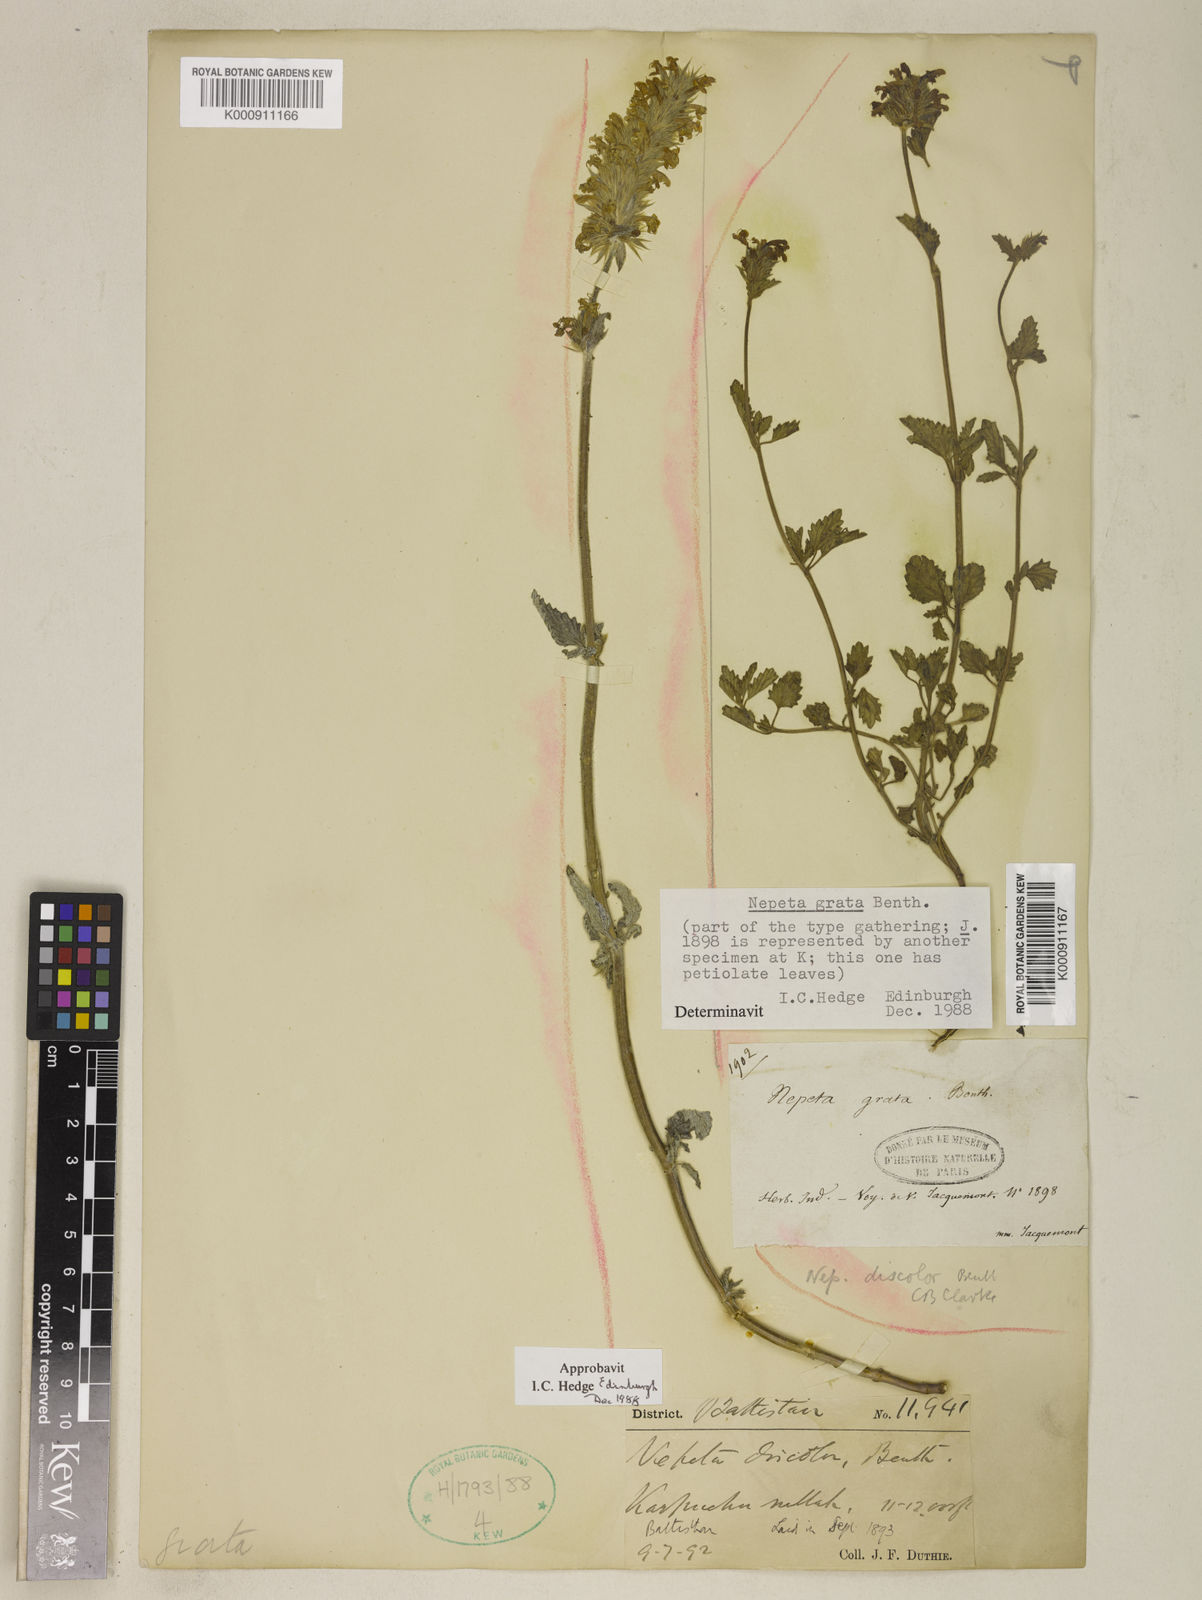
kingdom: Plantae
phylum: Tracheophyta
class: Magnoliopsida
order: Lamiales
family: Lamiaceae
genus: Nepeta
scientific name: Nepeta grata
